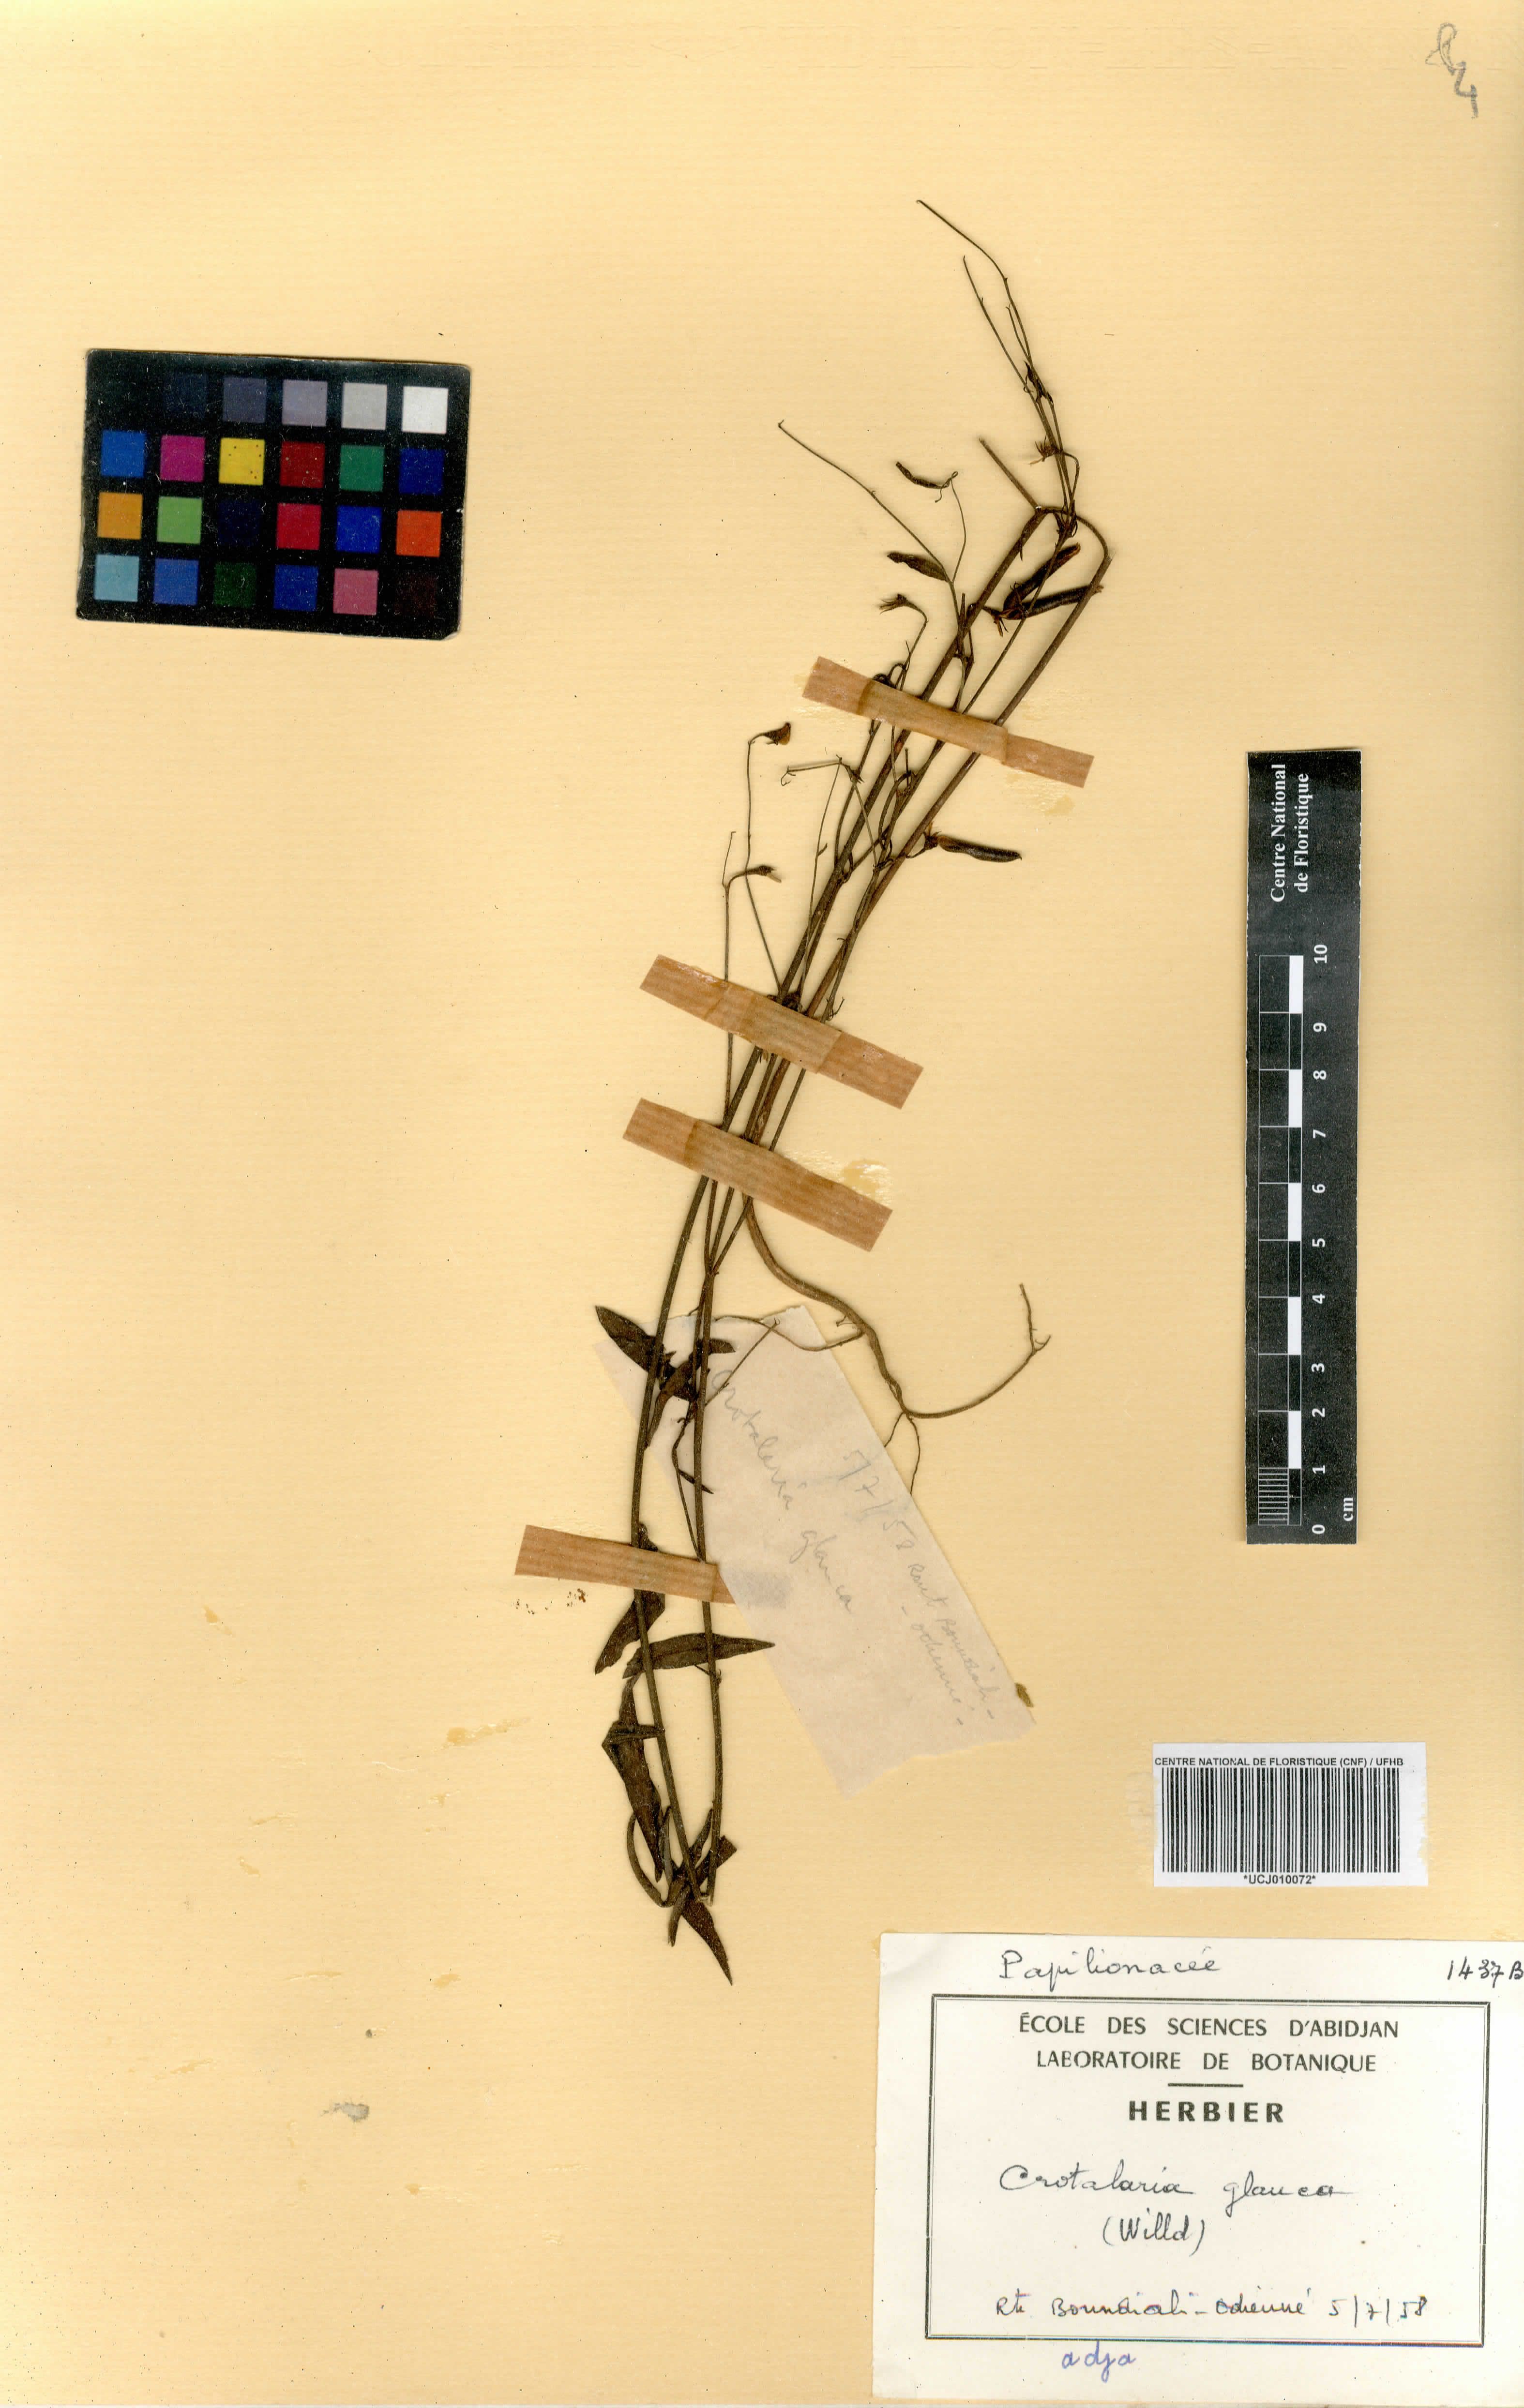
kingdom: Plantae
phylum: Tracheophyta
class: Magnoliopsida
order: Fabales
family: Fabaceae
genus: Crotalaria
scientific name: Crotalaria glauca
